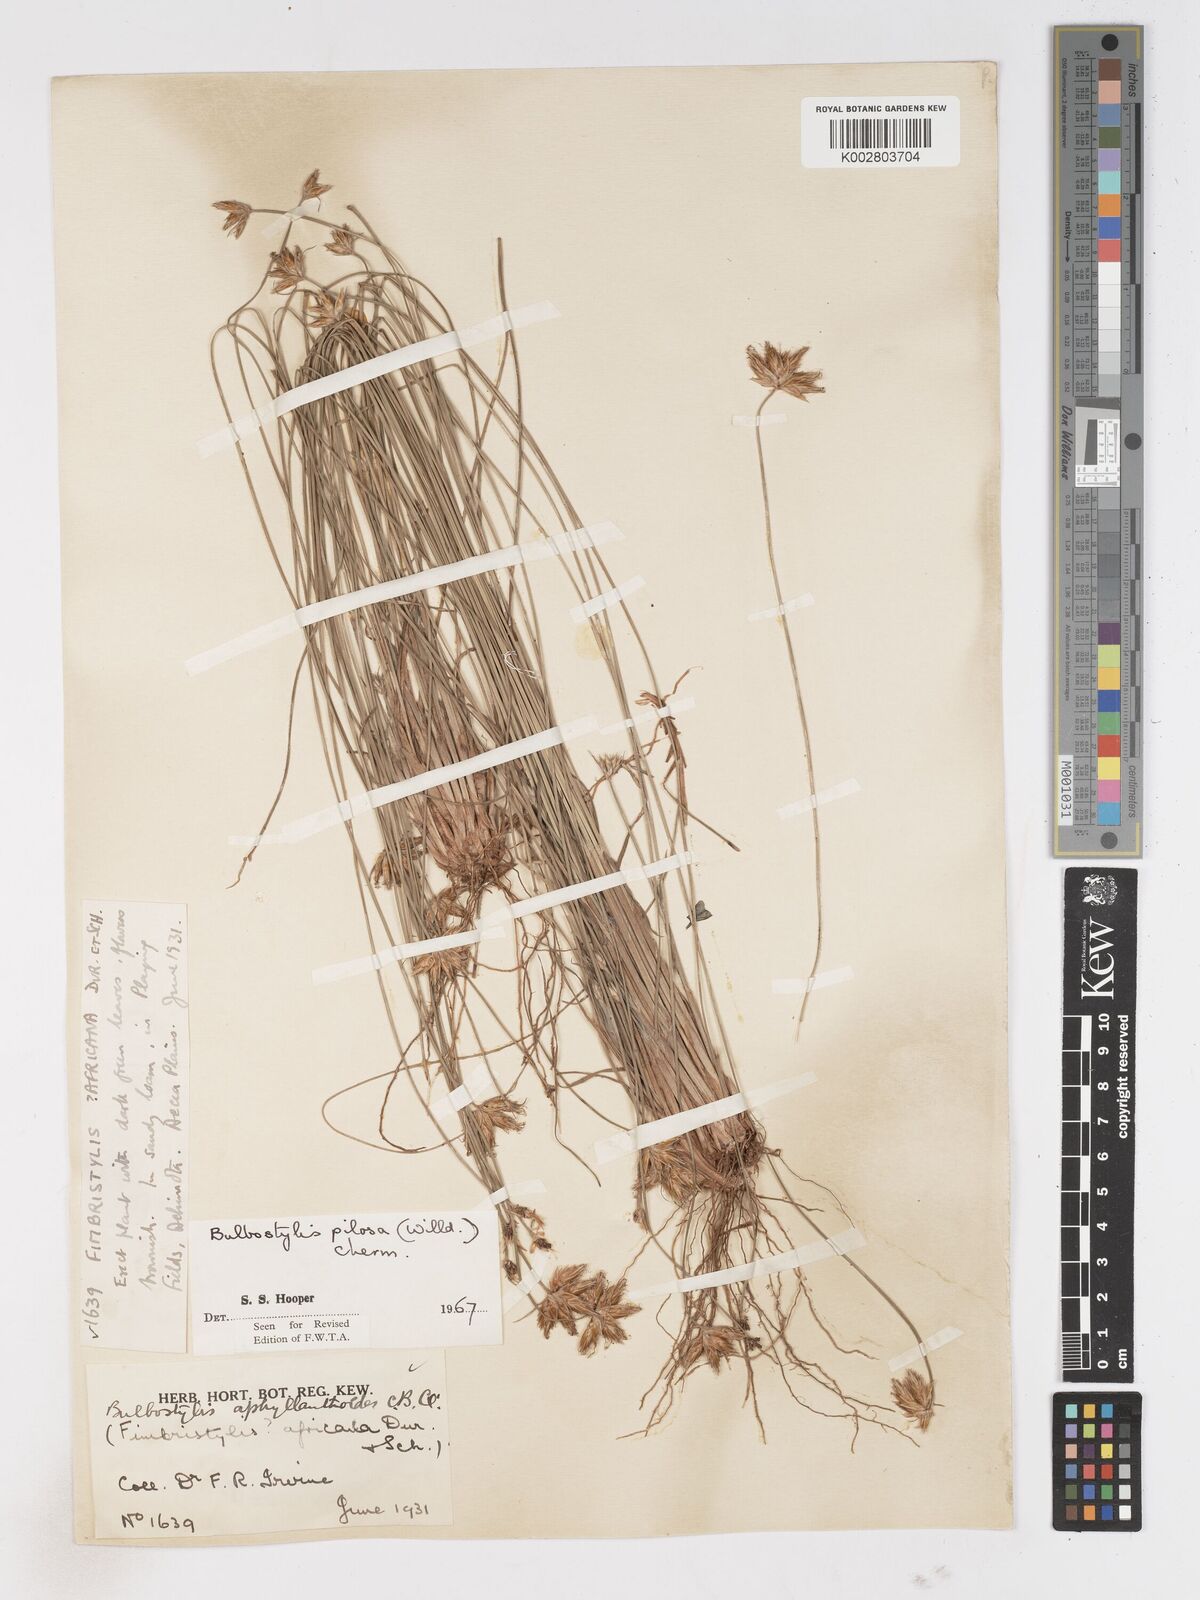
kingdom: Plantae
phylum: Tracheophyta
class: Liliopsida
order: Poales
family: Cyperaceae
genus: Bulbostylis
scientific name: Bulbostylis pilosa
